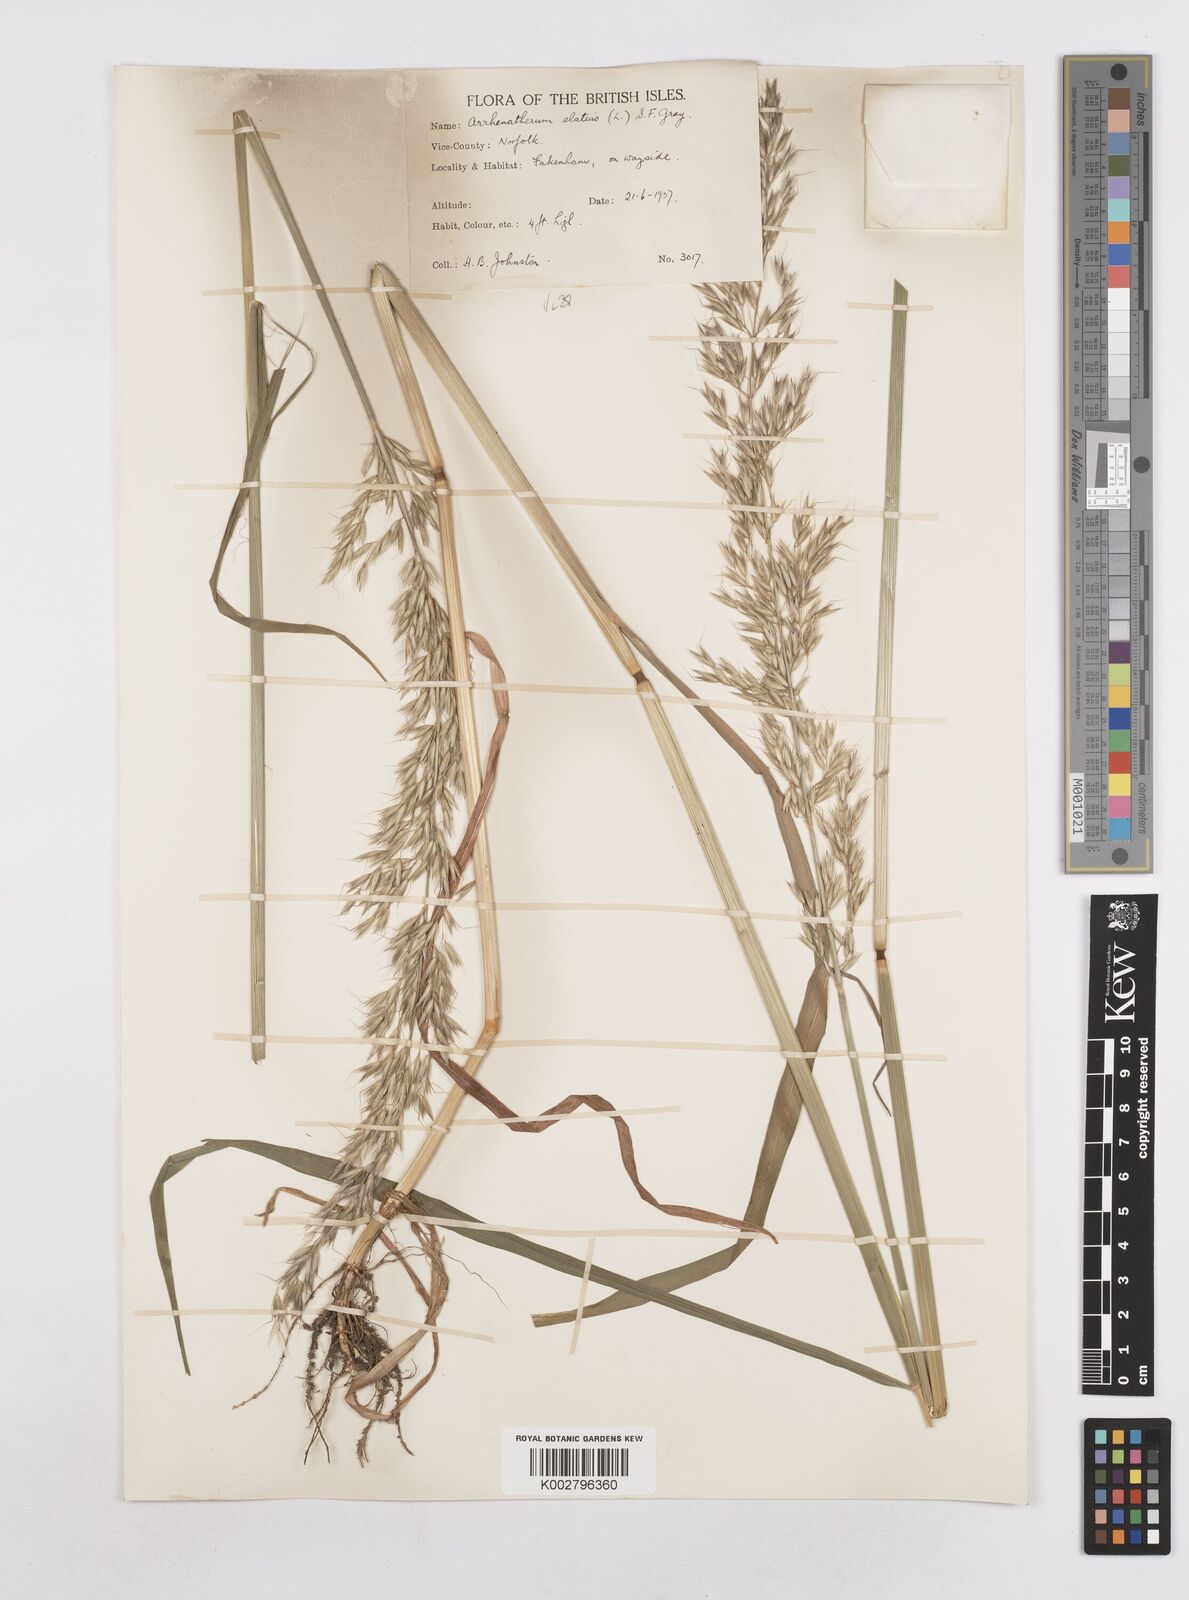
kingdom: Plantae
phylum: Tracheophyta
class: Liliopsida
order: Poales
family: Poaceae
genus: Arrhenatherum
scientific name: Arrhenatherum elatius
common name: Tall oatgrass
